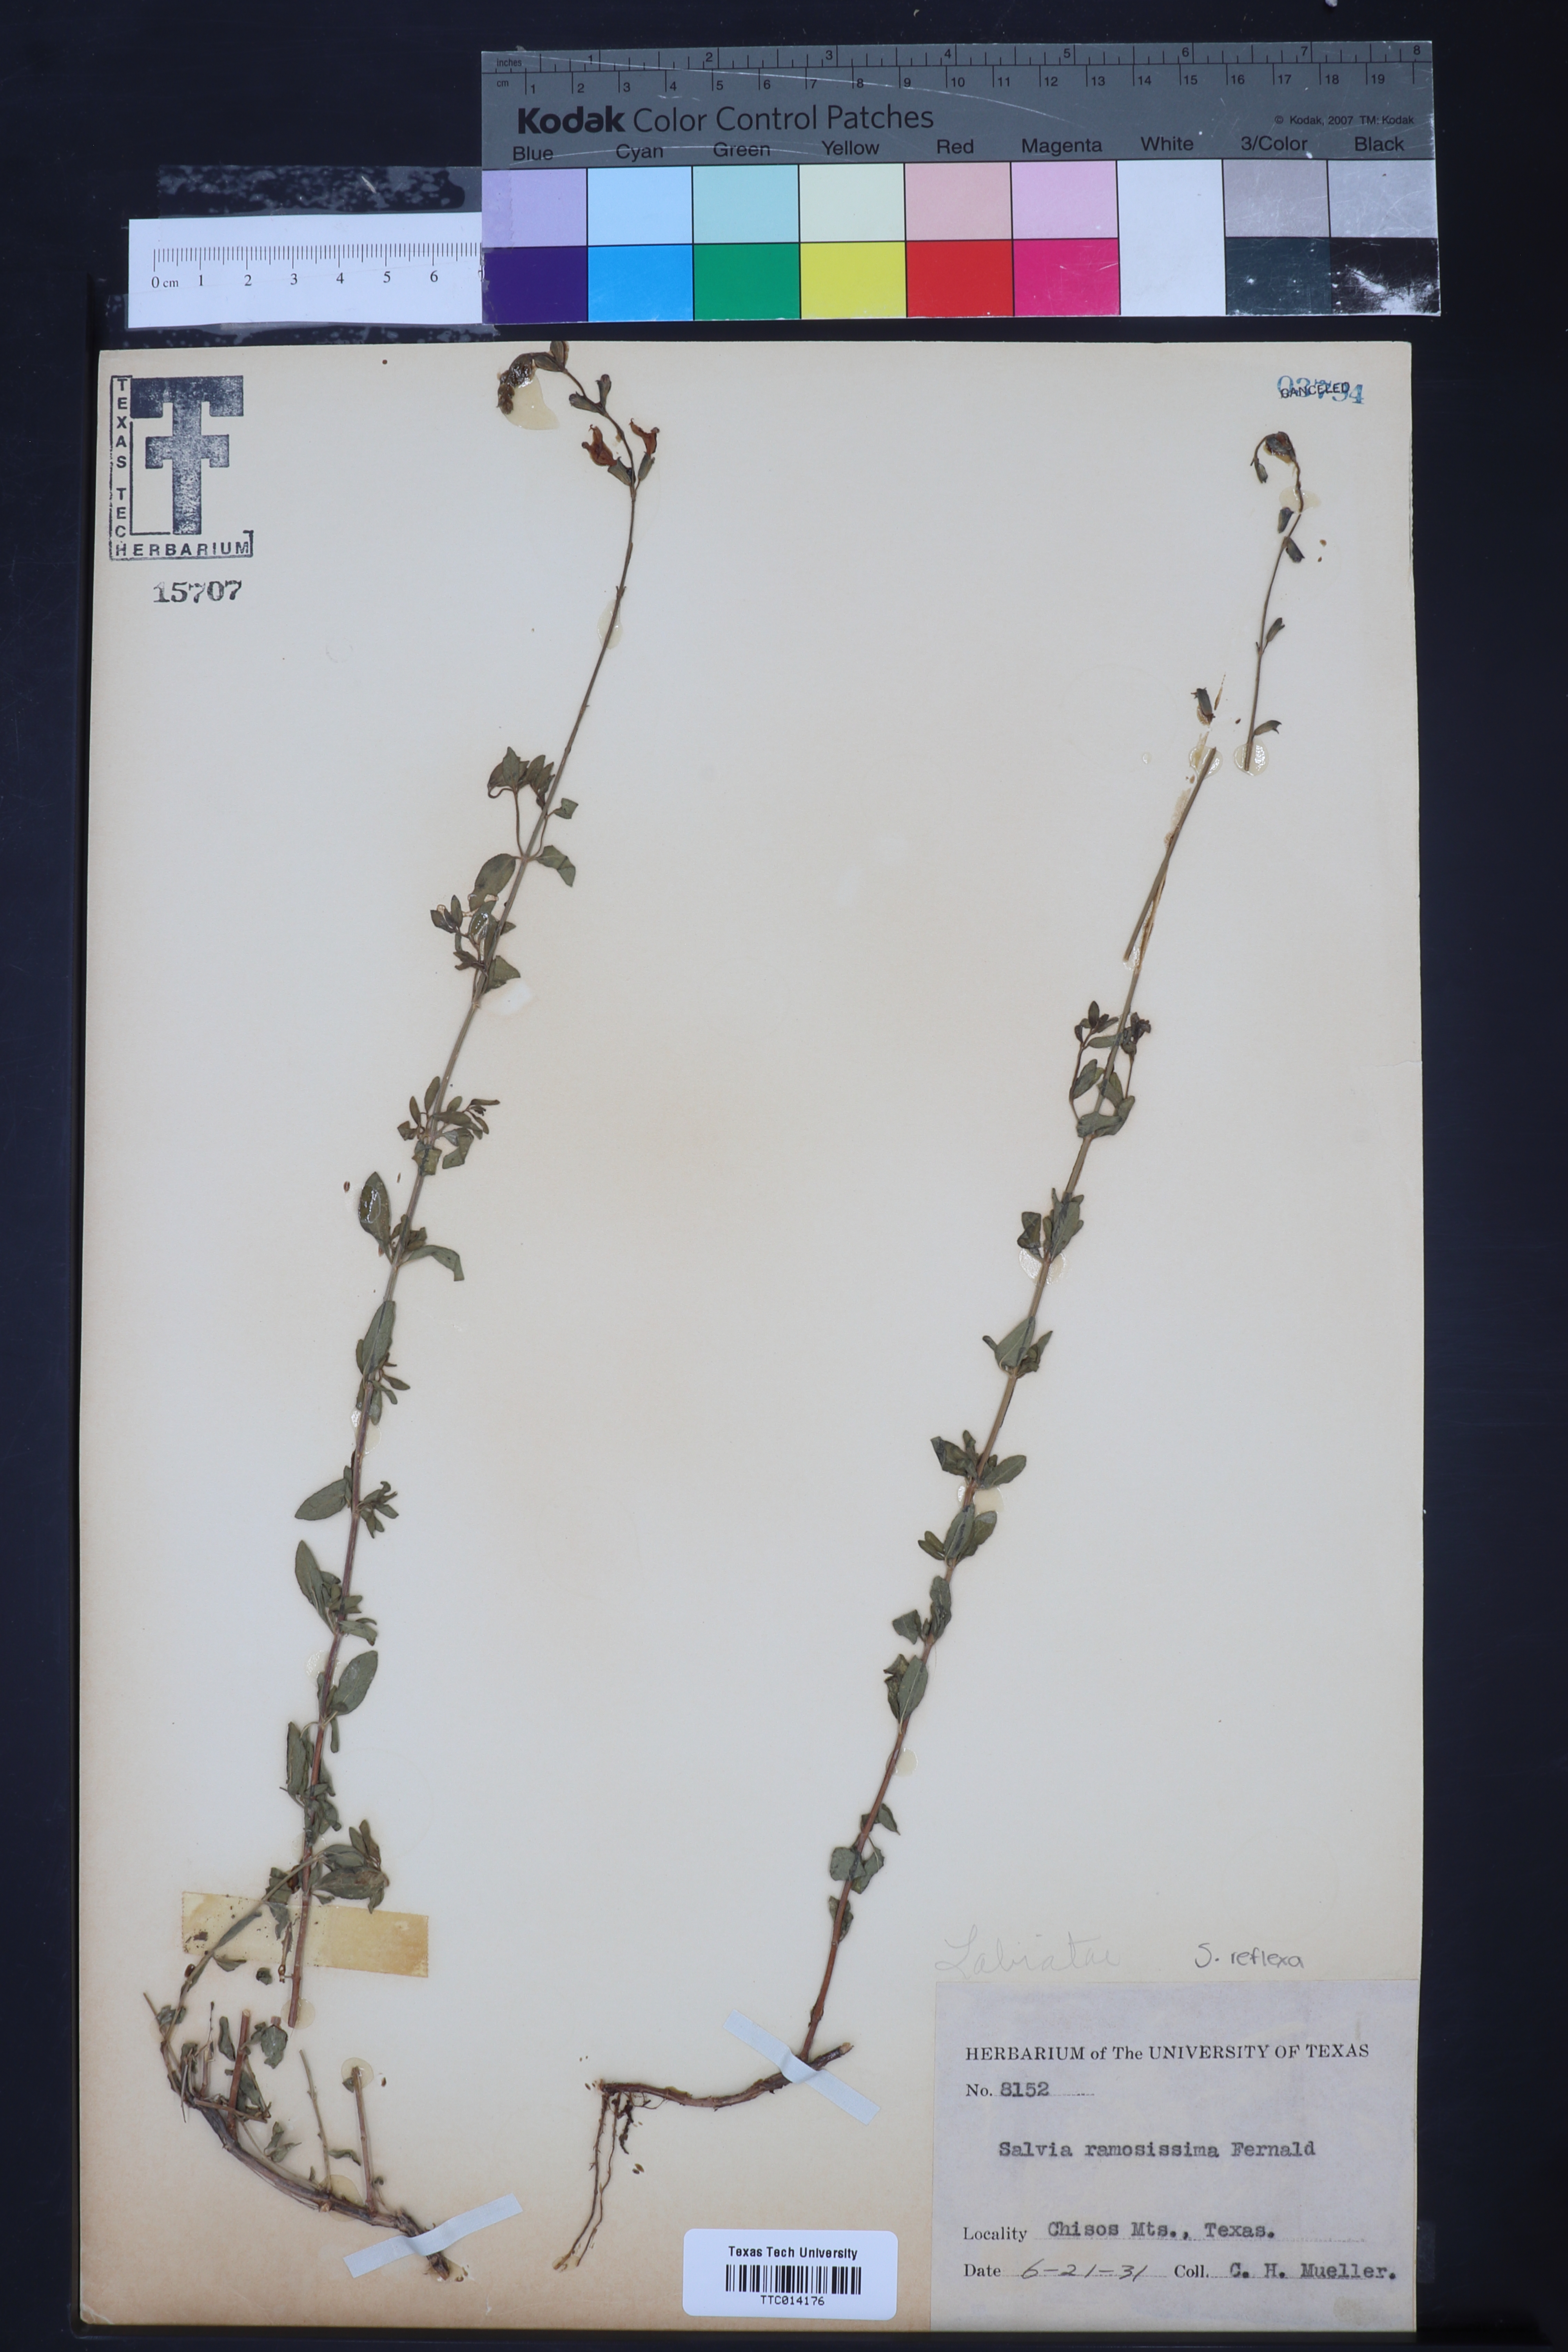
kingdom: Plantae
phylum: Tracheophyta
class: Magnoliopsida
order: Lamiales
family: Lamiaceae
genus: Salvia
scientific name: Salvia lycioides
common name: Canyon sage
